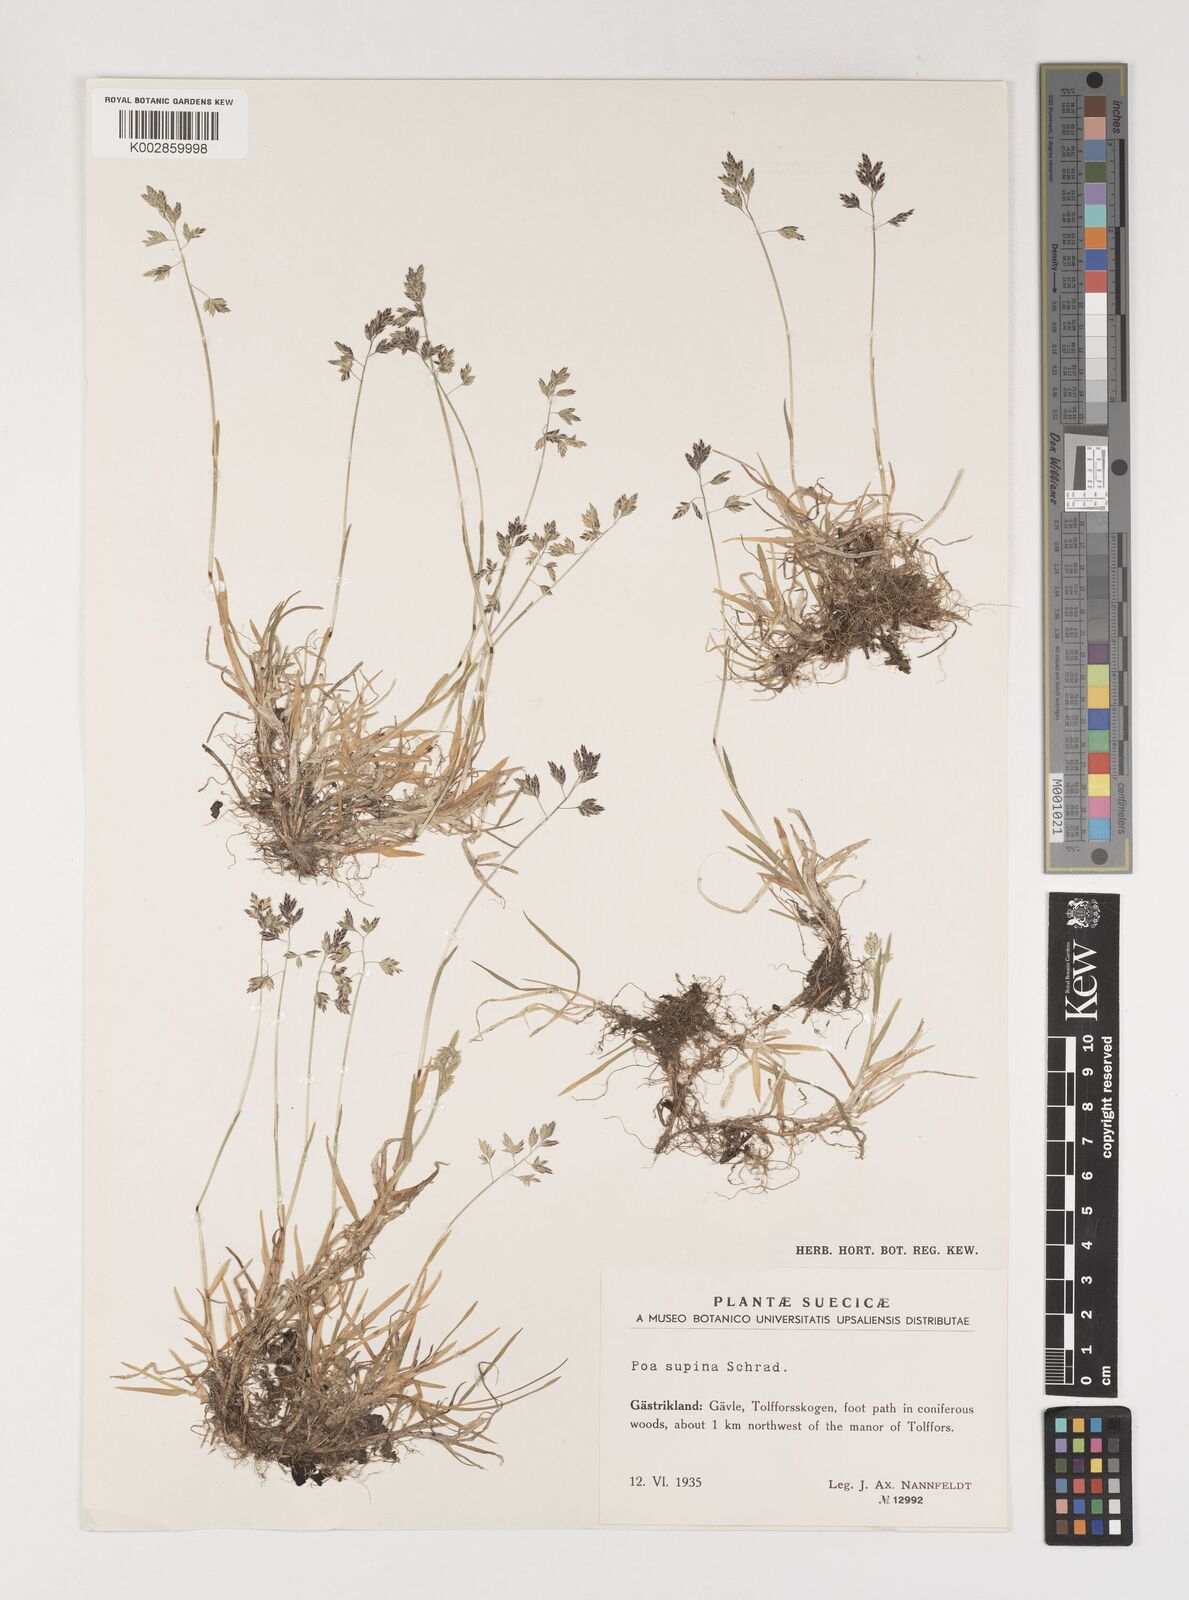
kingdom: Plantae
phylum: Tracheophyta
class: Liliopsida
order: Poales
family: Poaceae
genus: Poa
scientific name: Poa supina
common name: Supina bluegrass
